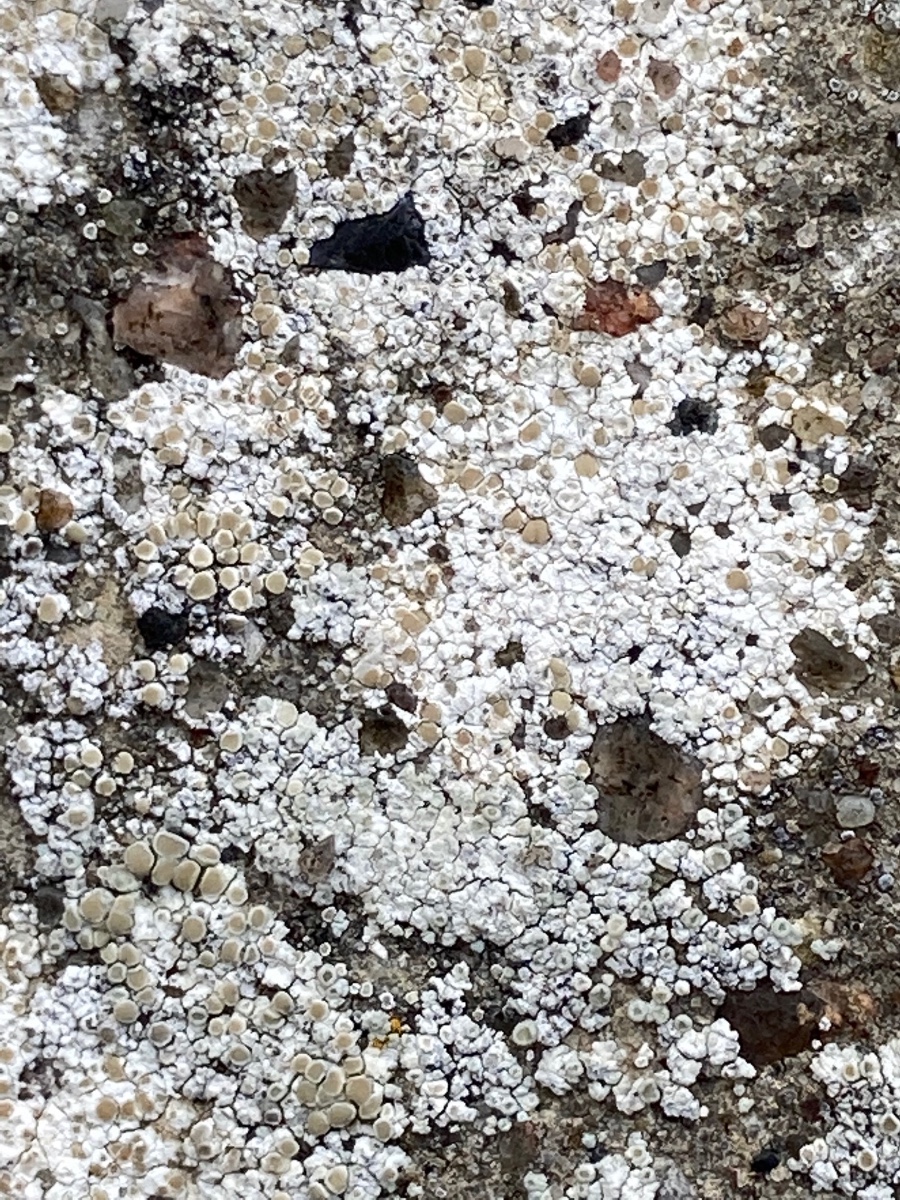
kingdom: Fungi
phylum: Ascomycota
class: Lecanoromycetes
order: Lecanorales
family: Lecanoraceae
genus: Polyozosia
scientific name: Polyozosia albescens
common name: cement-kantskivelav
